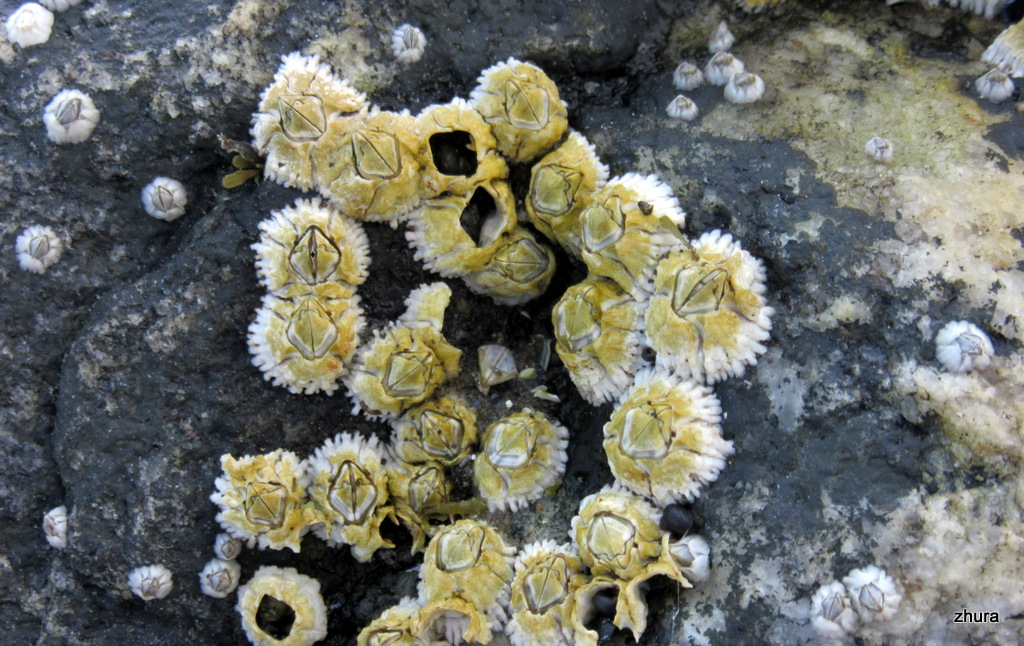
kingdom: Animalia
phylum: Arthropoda
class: Maxillopoda
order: Sessilia
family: Archaeobalanidae
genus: Semibalanus
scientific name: Semibalanus balanoides
